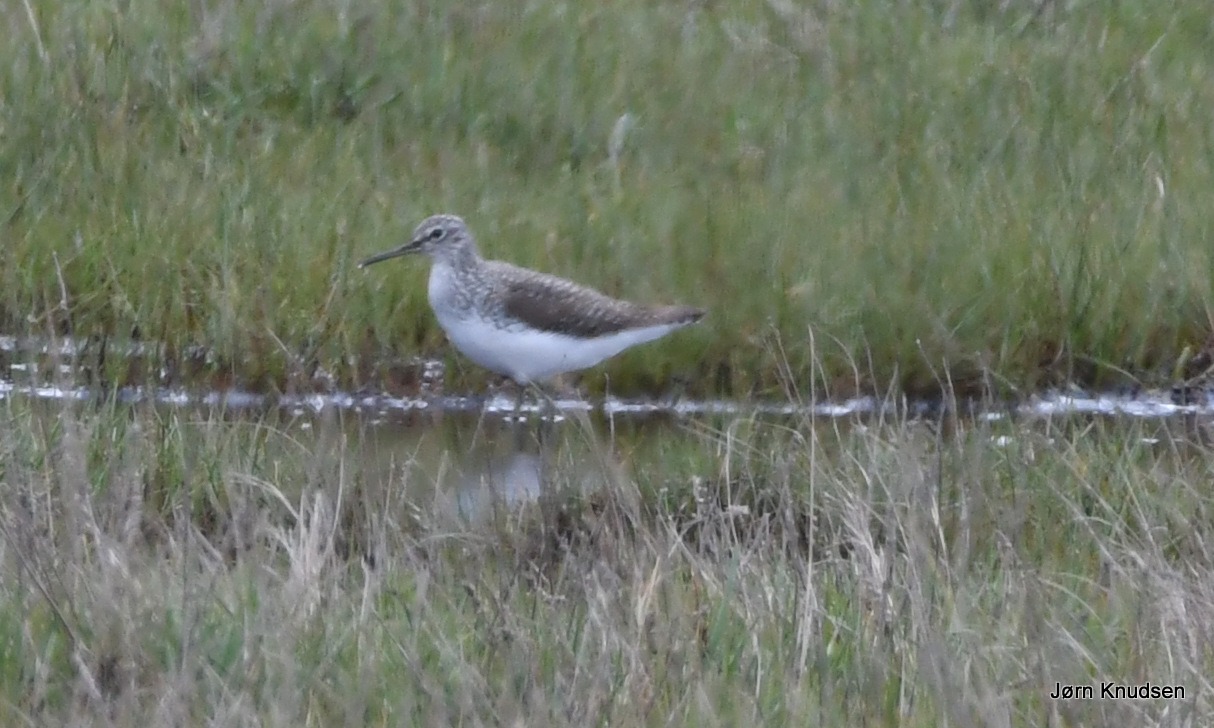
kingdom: Animalia
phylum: Chordata
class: Aves
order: Charadriiformes
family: Scolopacidae
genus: Tringa
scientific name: Tringa ochropus
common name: Svaleklire
